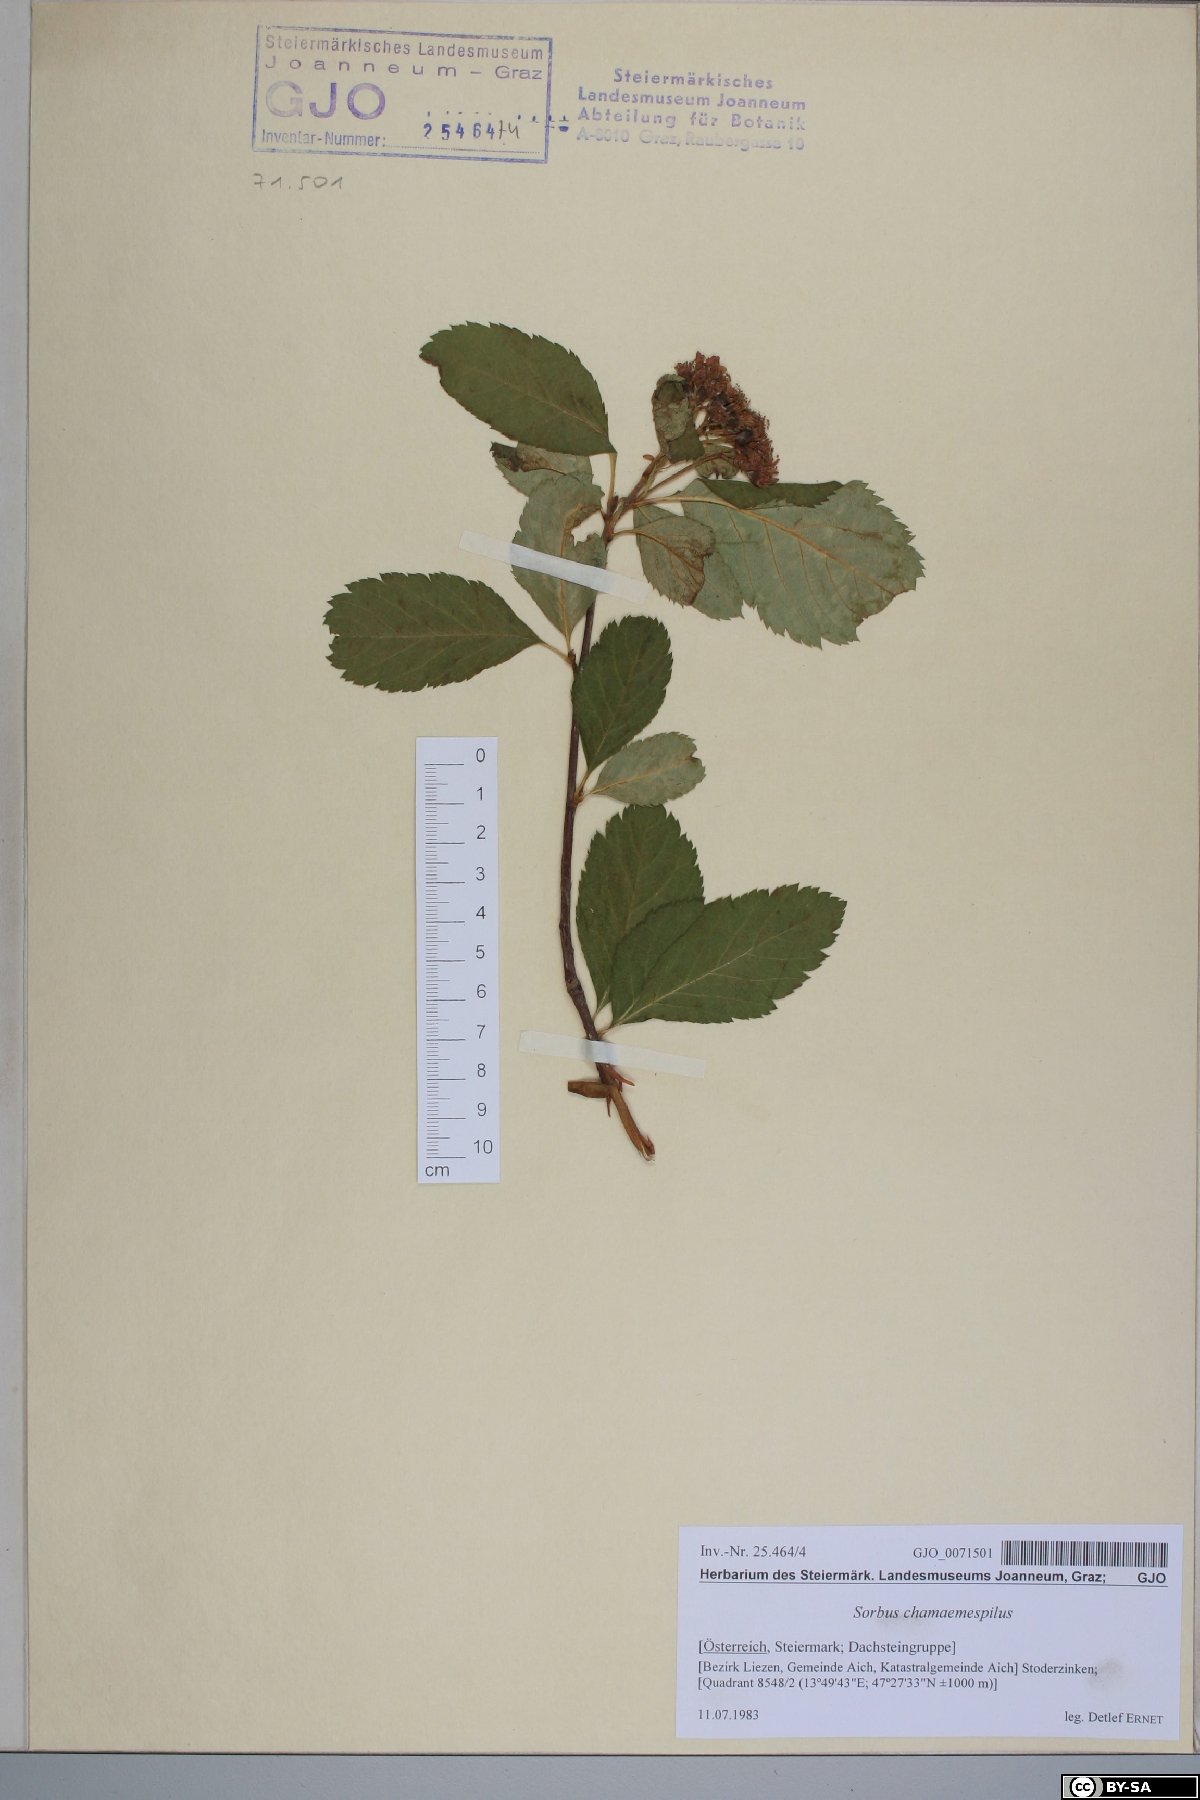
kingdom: Plantae
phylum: Tracheophyta
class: Magnoliopsida
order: Rosales
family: Rosaceae
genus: Chamaemespilus
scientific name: Chamaemespilus alpina
